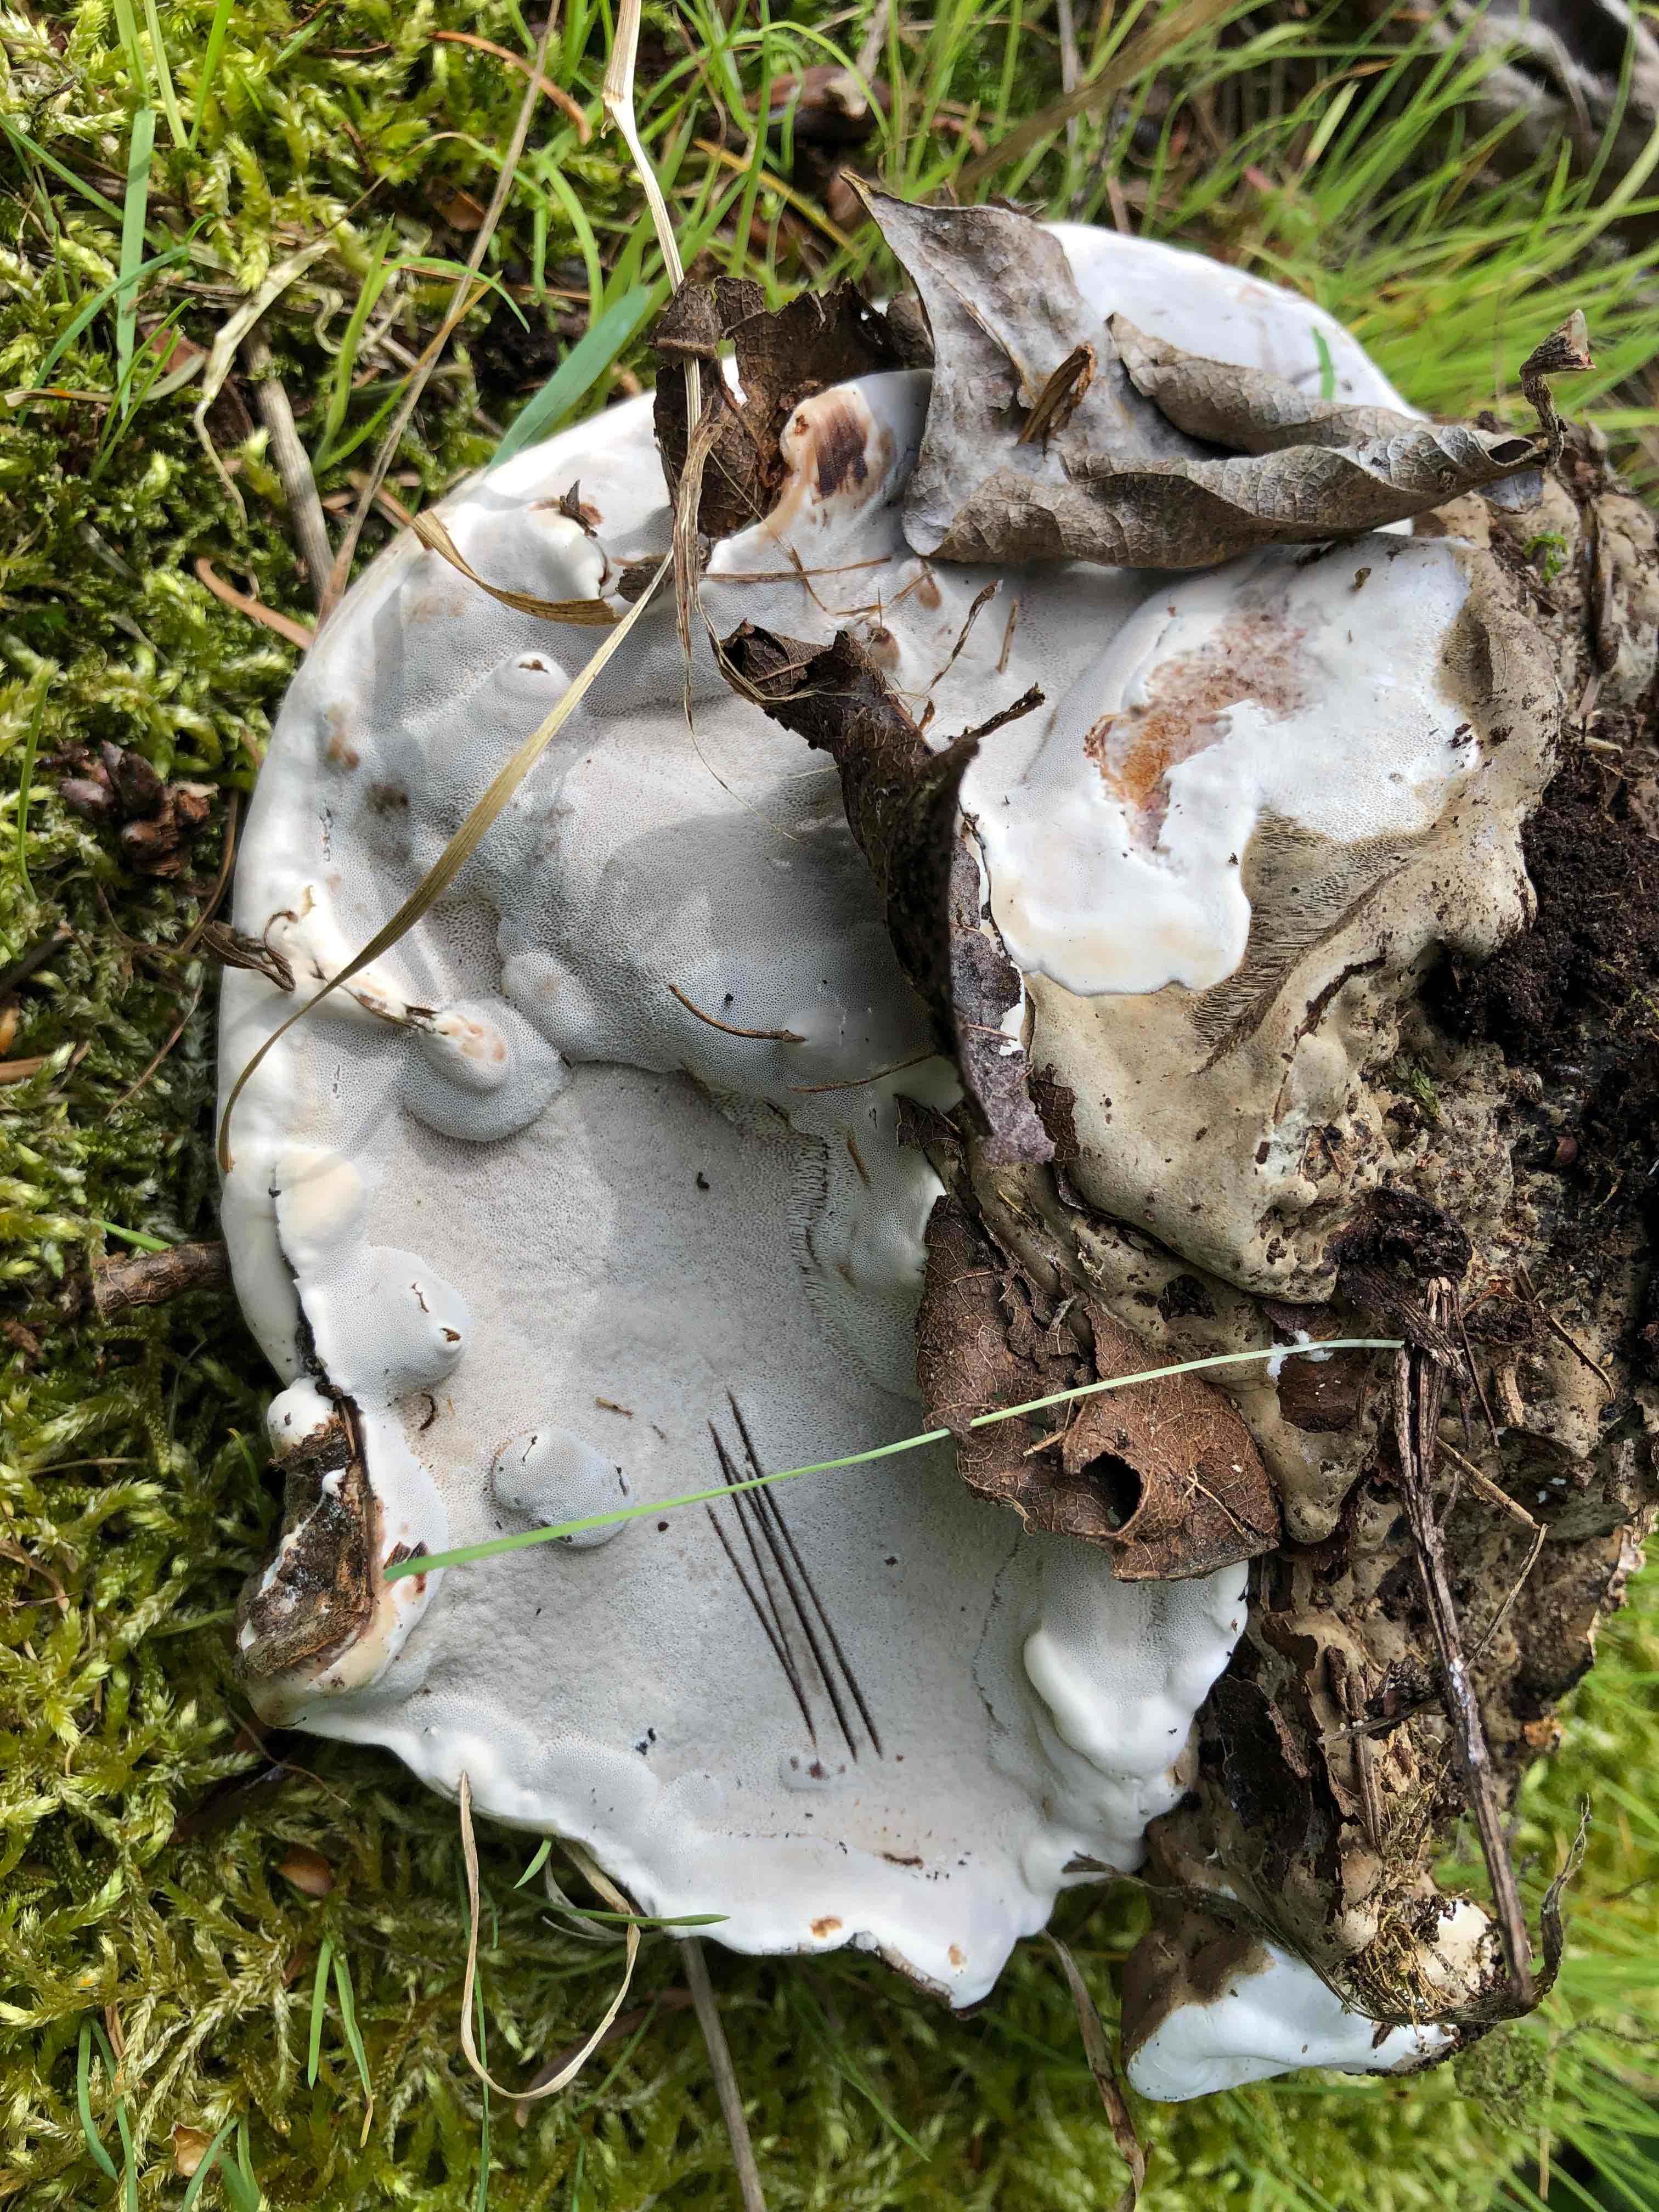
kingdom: Fungi
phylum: Basidiomycota
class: Agaricomycetes
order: Polyporales
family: Polyporaceae
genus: Ganoderma
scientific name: Ganoderma applanatum
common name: flad lakporesvamp
